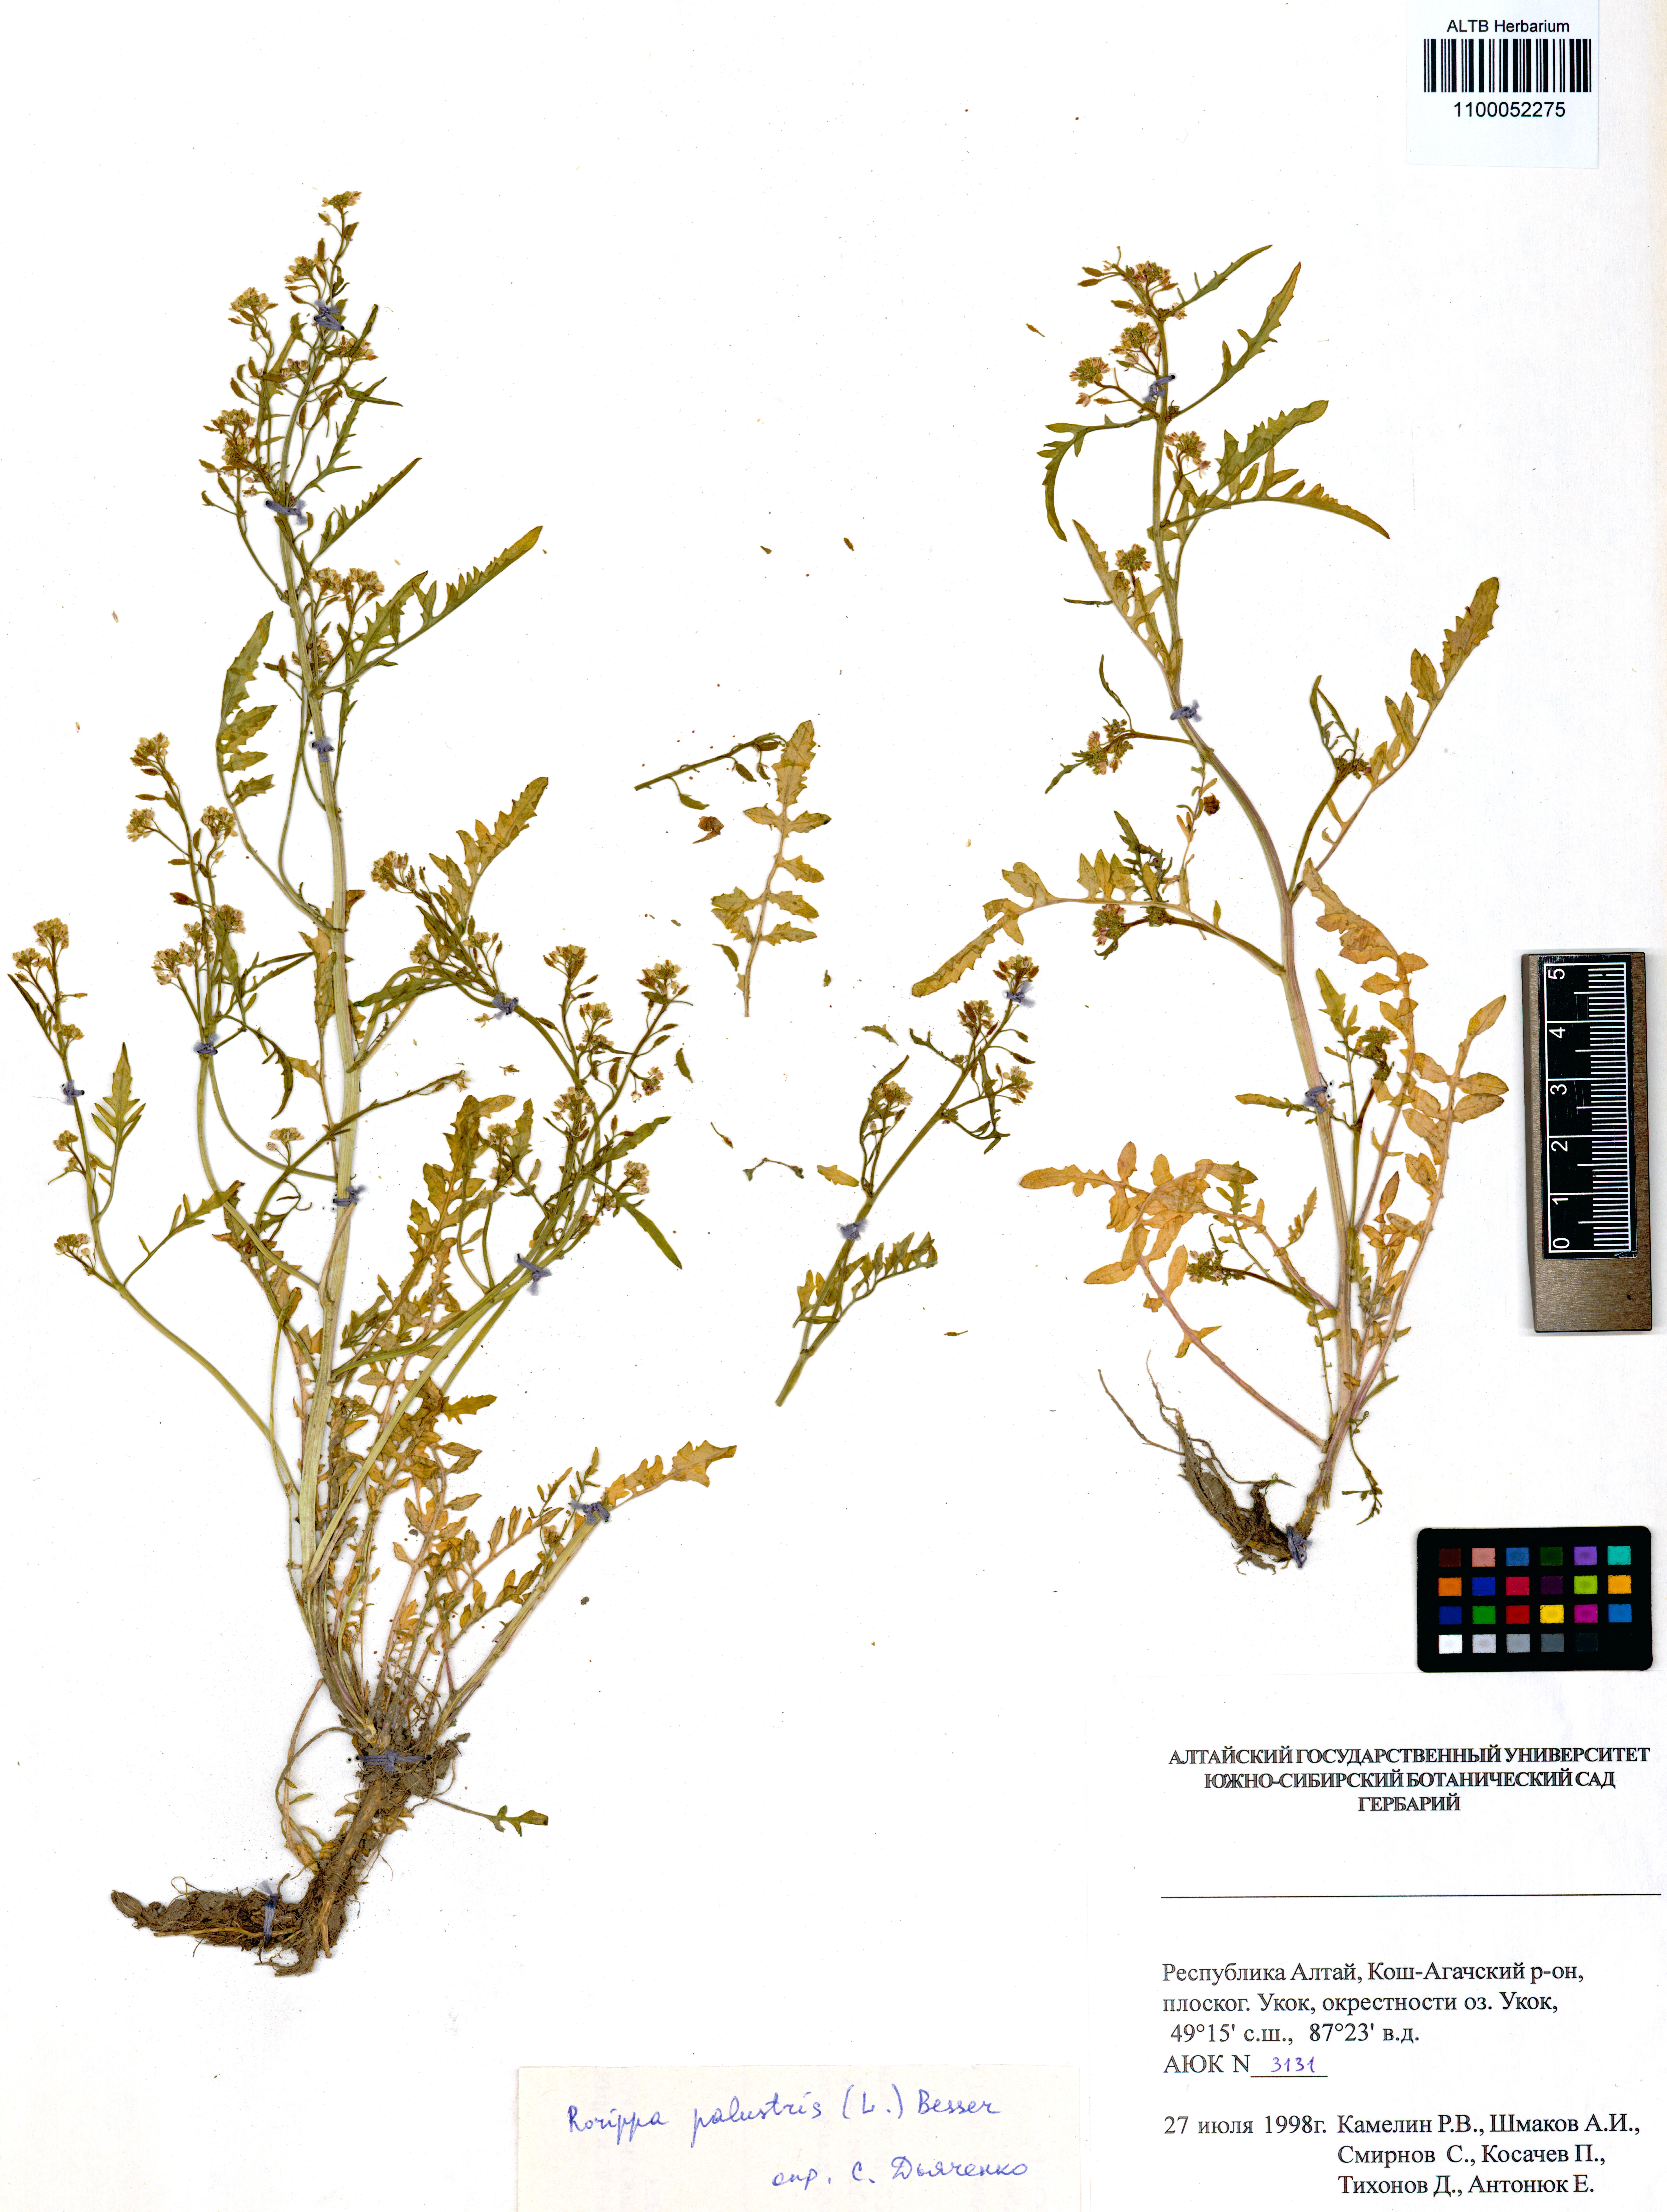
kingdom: Plantae
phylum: Tracheophyta
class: Magnoliopsida
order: Brassicales
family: Brassicaceae
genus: Rorippa
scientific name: Rorippa palustris
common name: Marsh yellow-cress
